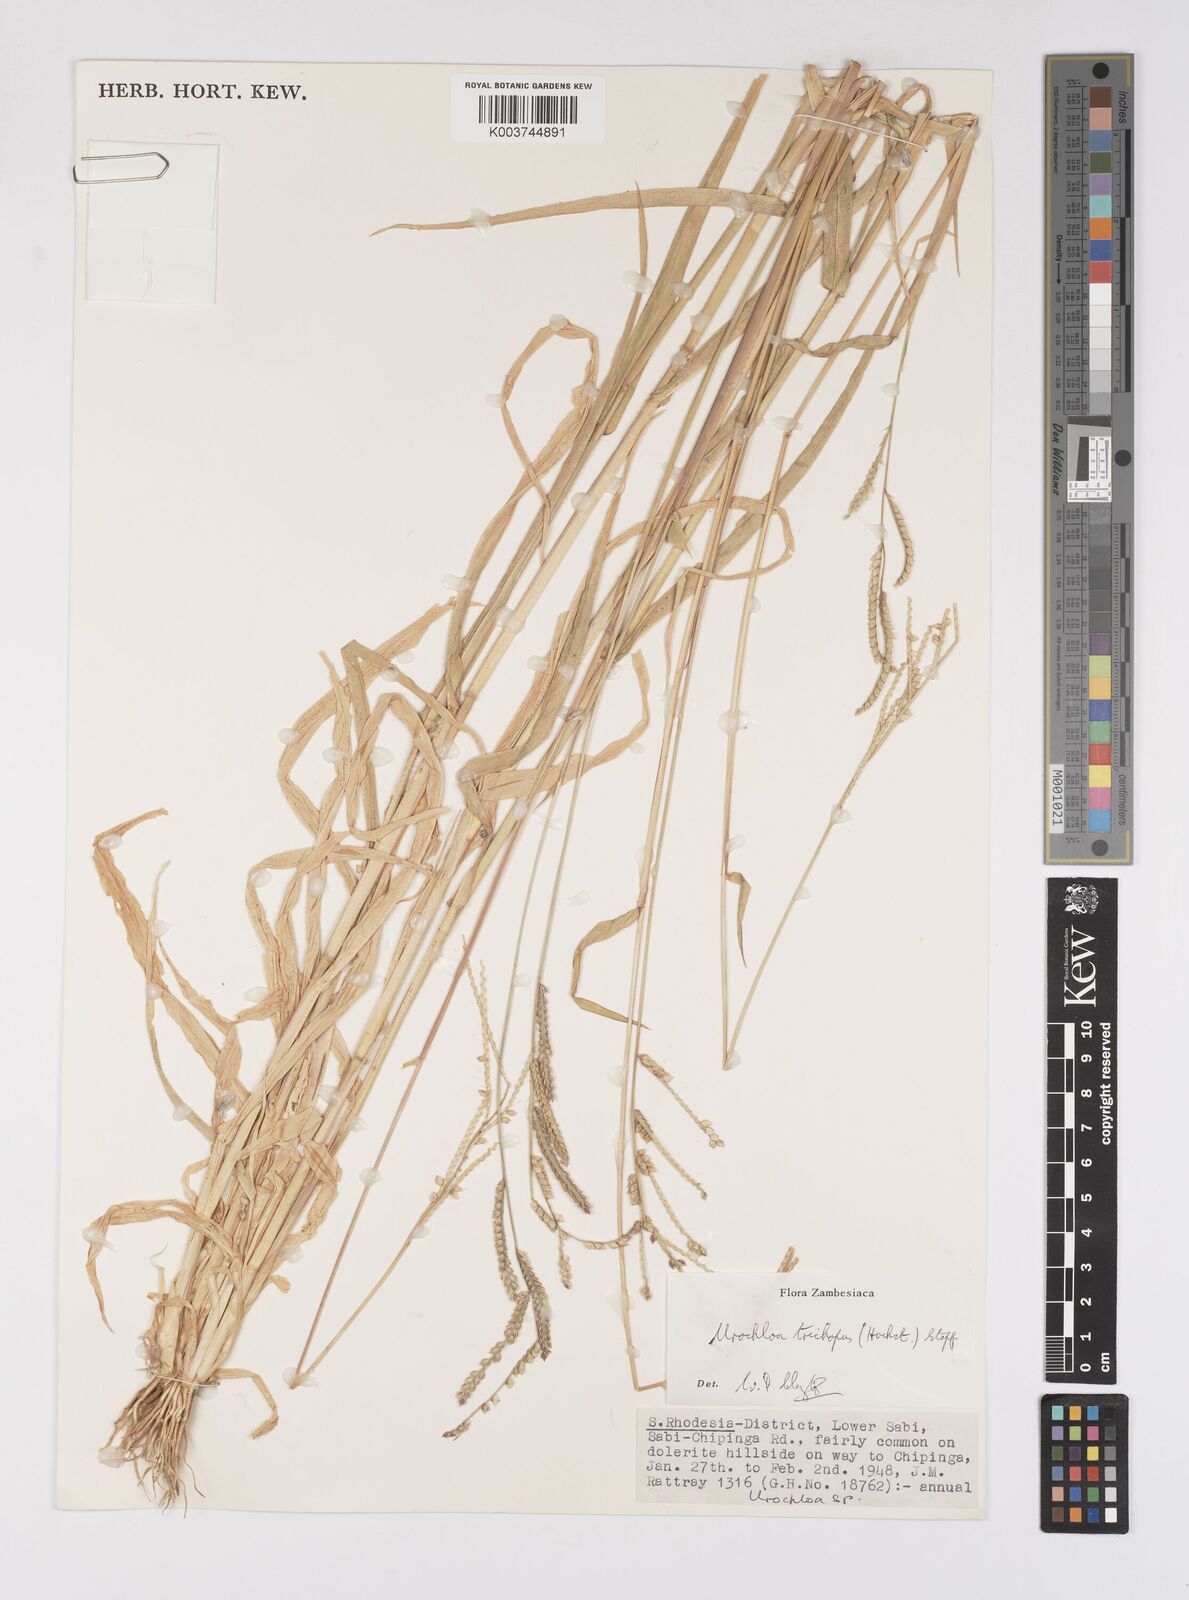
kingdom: Plantae
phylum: Tracheophyta
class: Liliopsida
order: Poales
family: Poaceae
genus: Urochloa
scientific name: Urochloa trichopus
